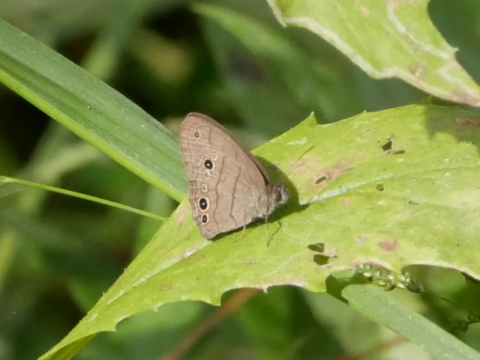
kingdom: Animalia
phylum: Arthropoda
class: Insecta
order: Lepidoptera
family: Nymphalidae
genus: Hermeuptychia
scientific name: Hermeuptychia intricata
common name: Intricate Satyr
